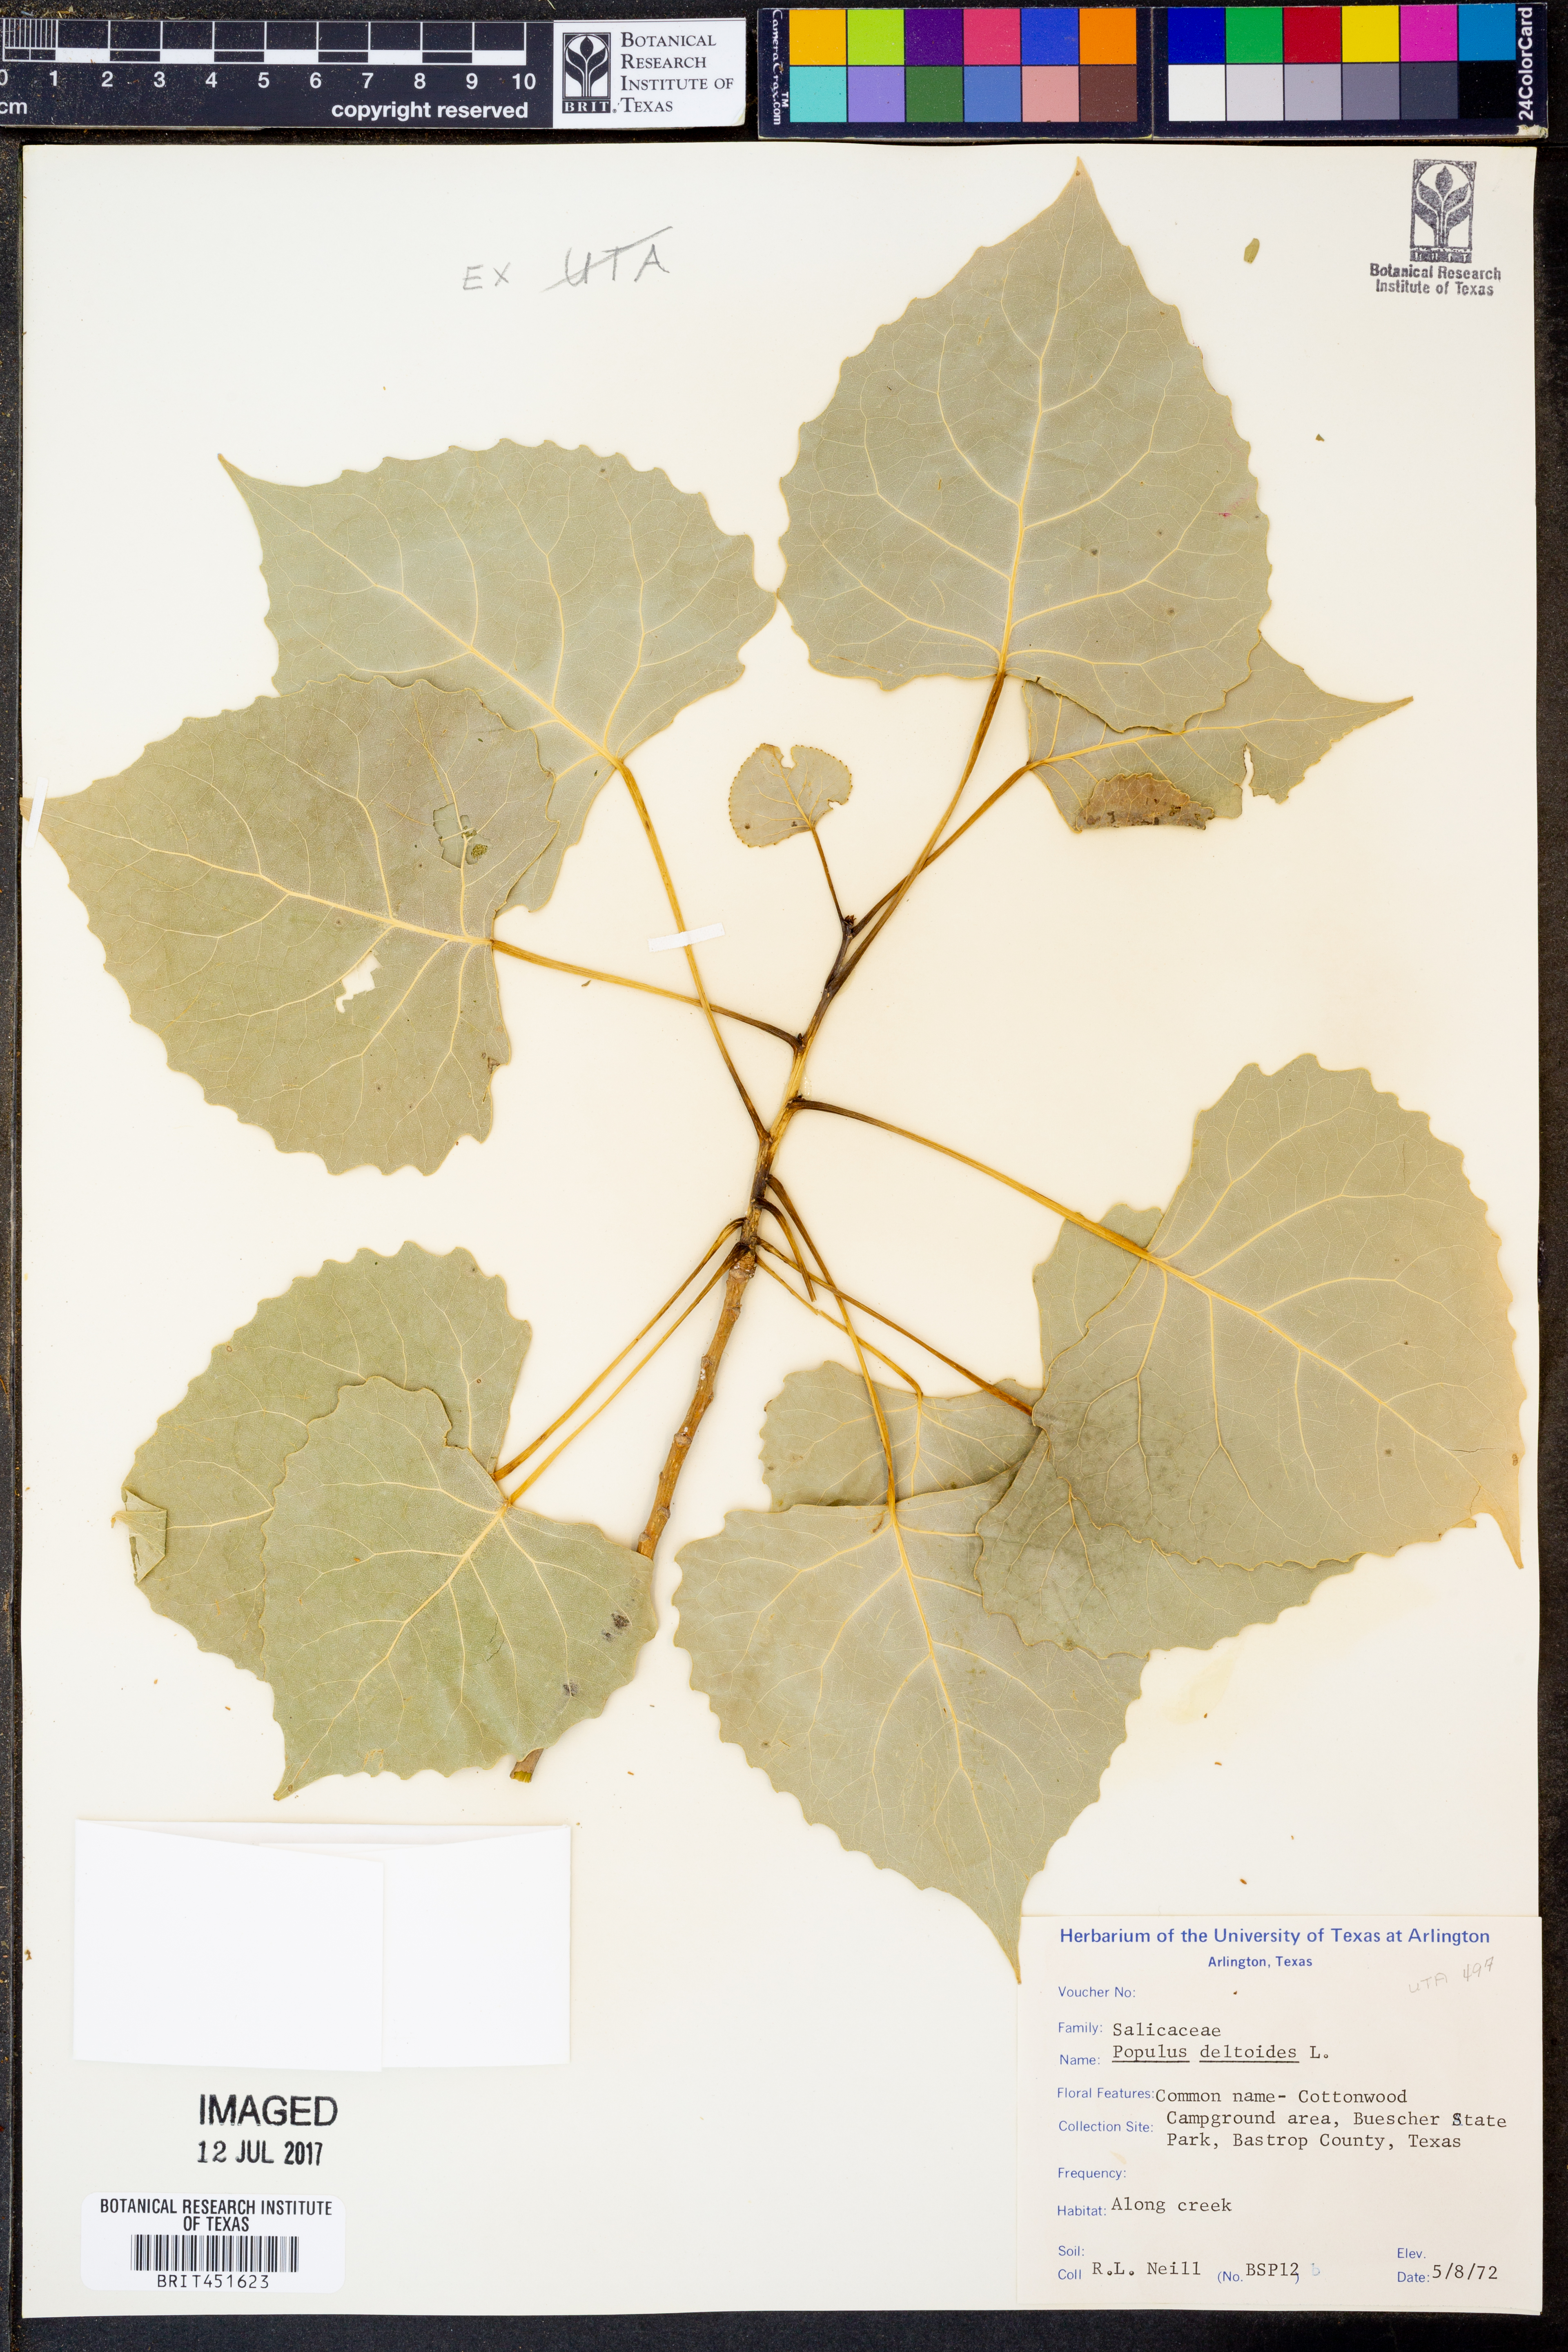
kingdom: Plantae
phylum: Tracheophyta
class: Magnoliopsida
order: Malpighiales
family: Salicaceae
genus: Populus
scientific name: Populus deltoides
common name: Eastern cottonwood
